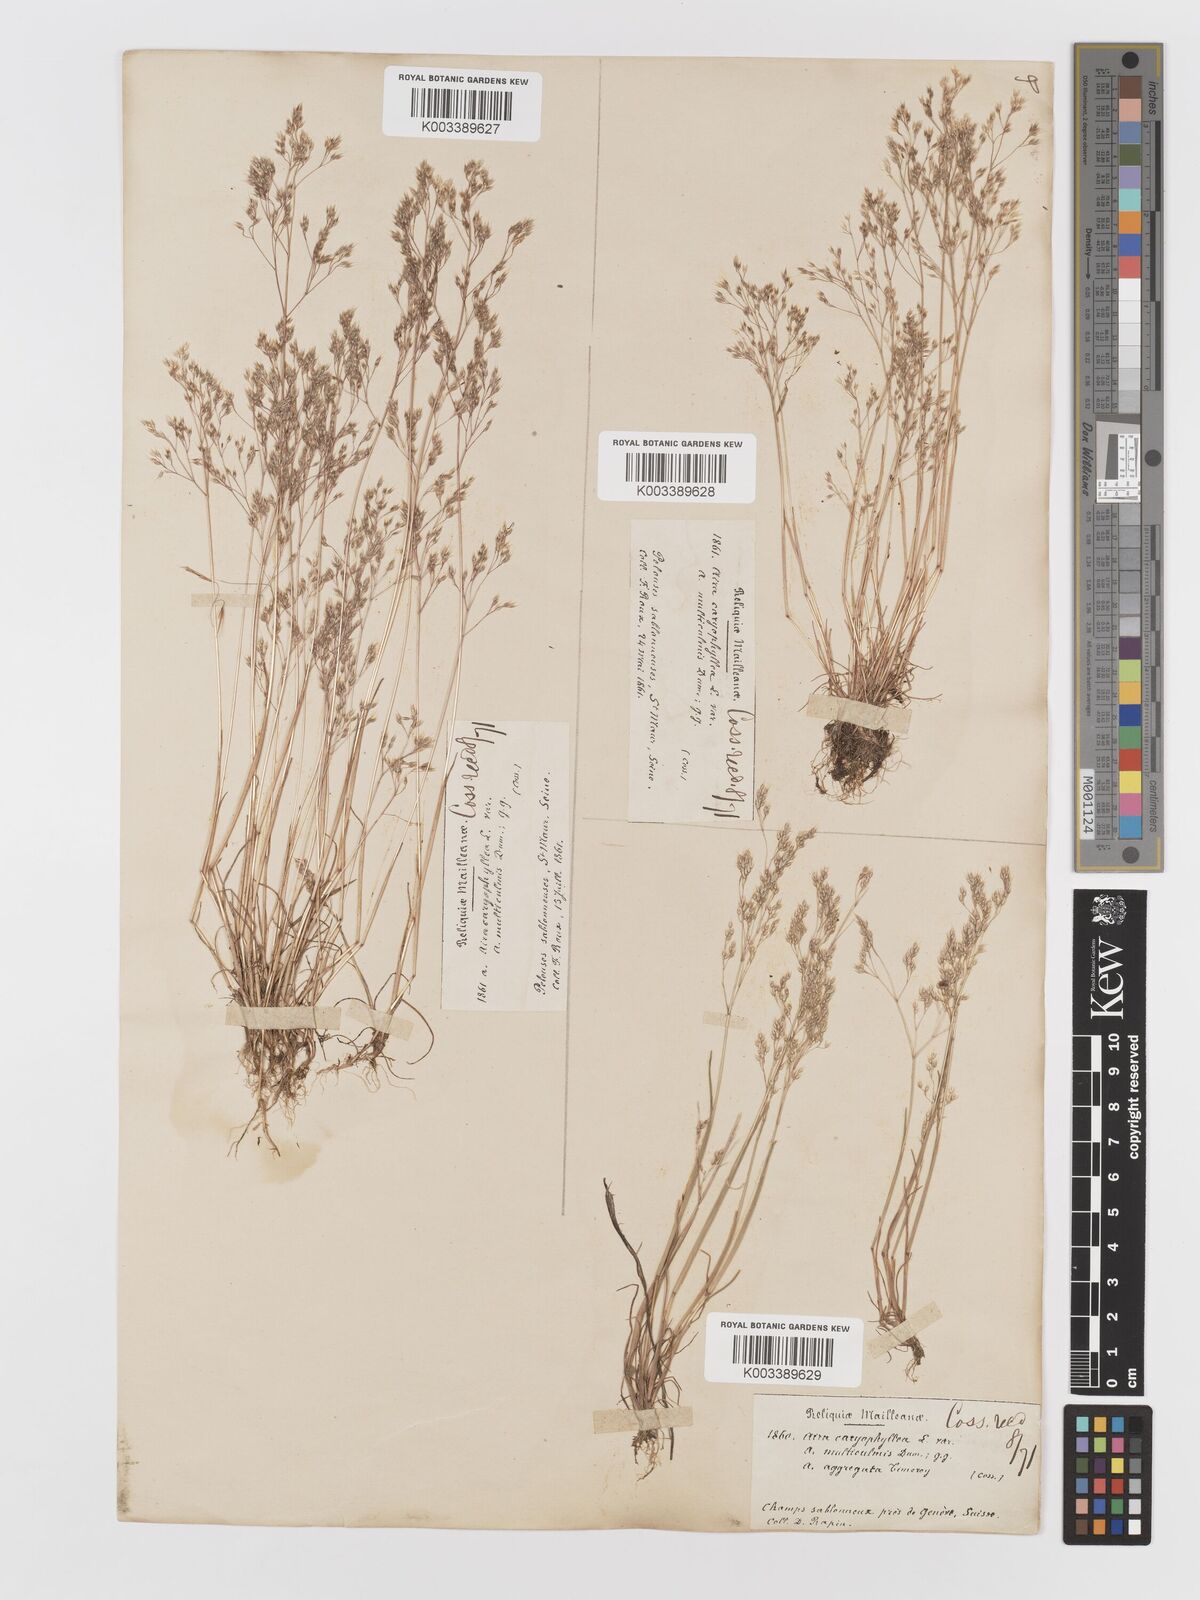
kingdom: Plantae
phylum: Tracheophyta
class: Liliopsida
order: Poales
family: Poaceae
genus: Aira
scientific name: Aira caryophyllea
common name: Silver hairgrass
